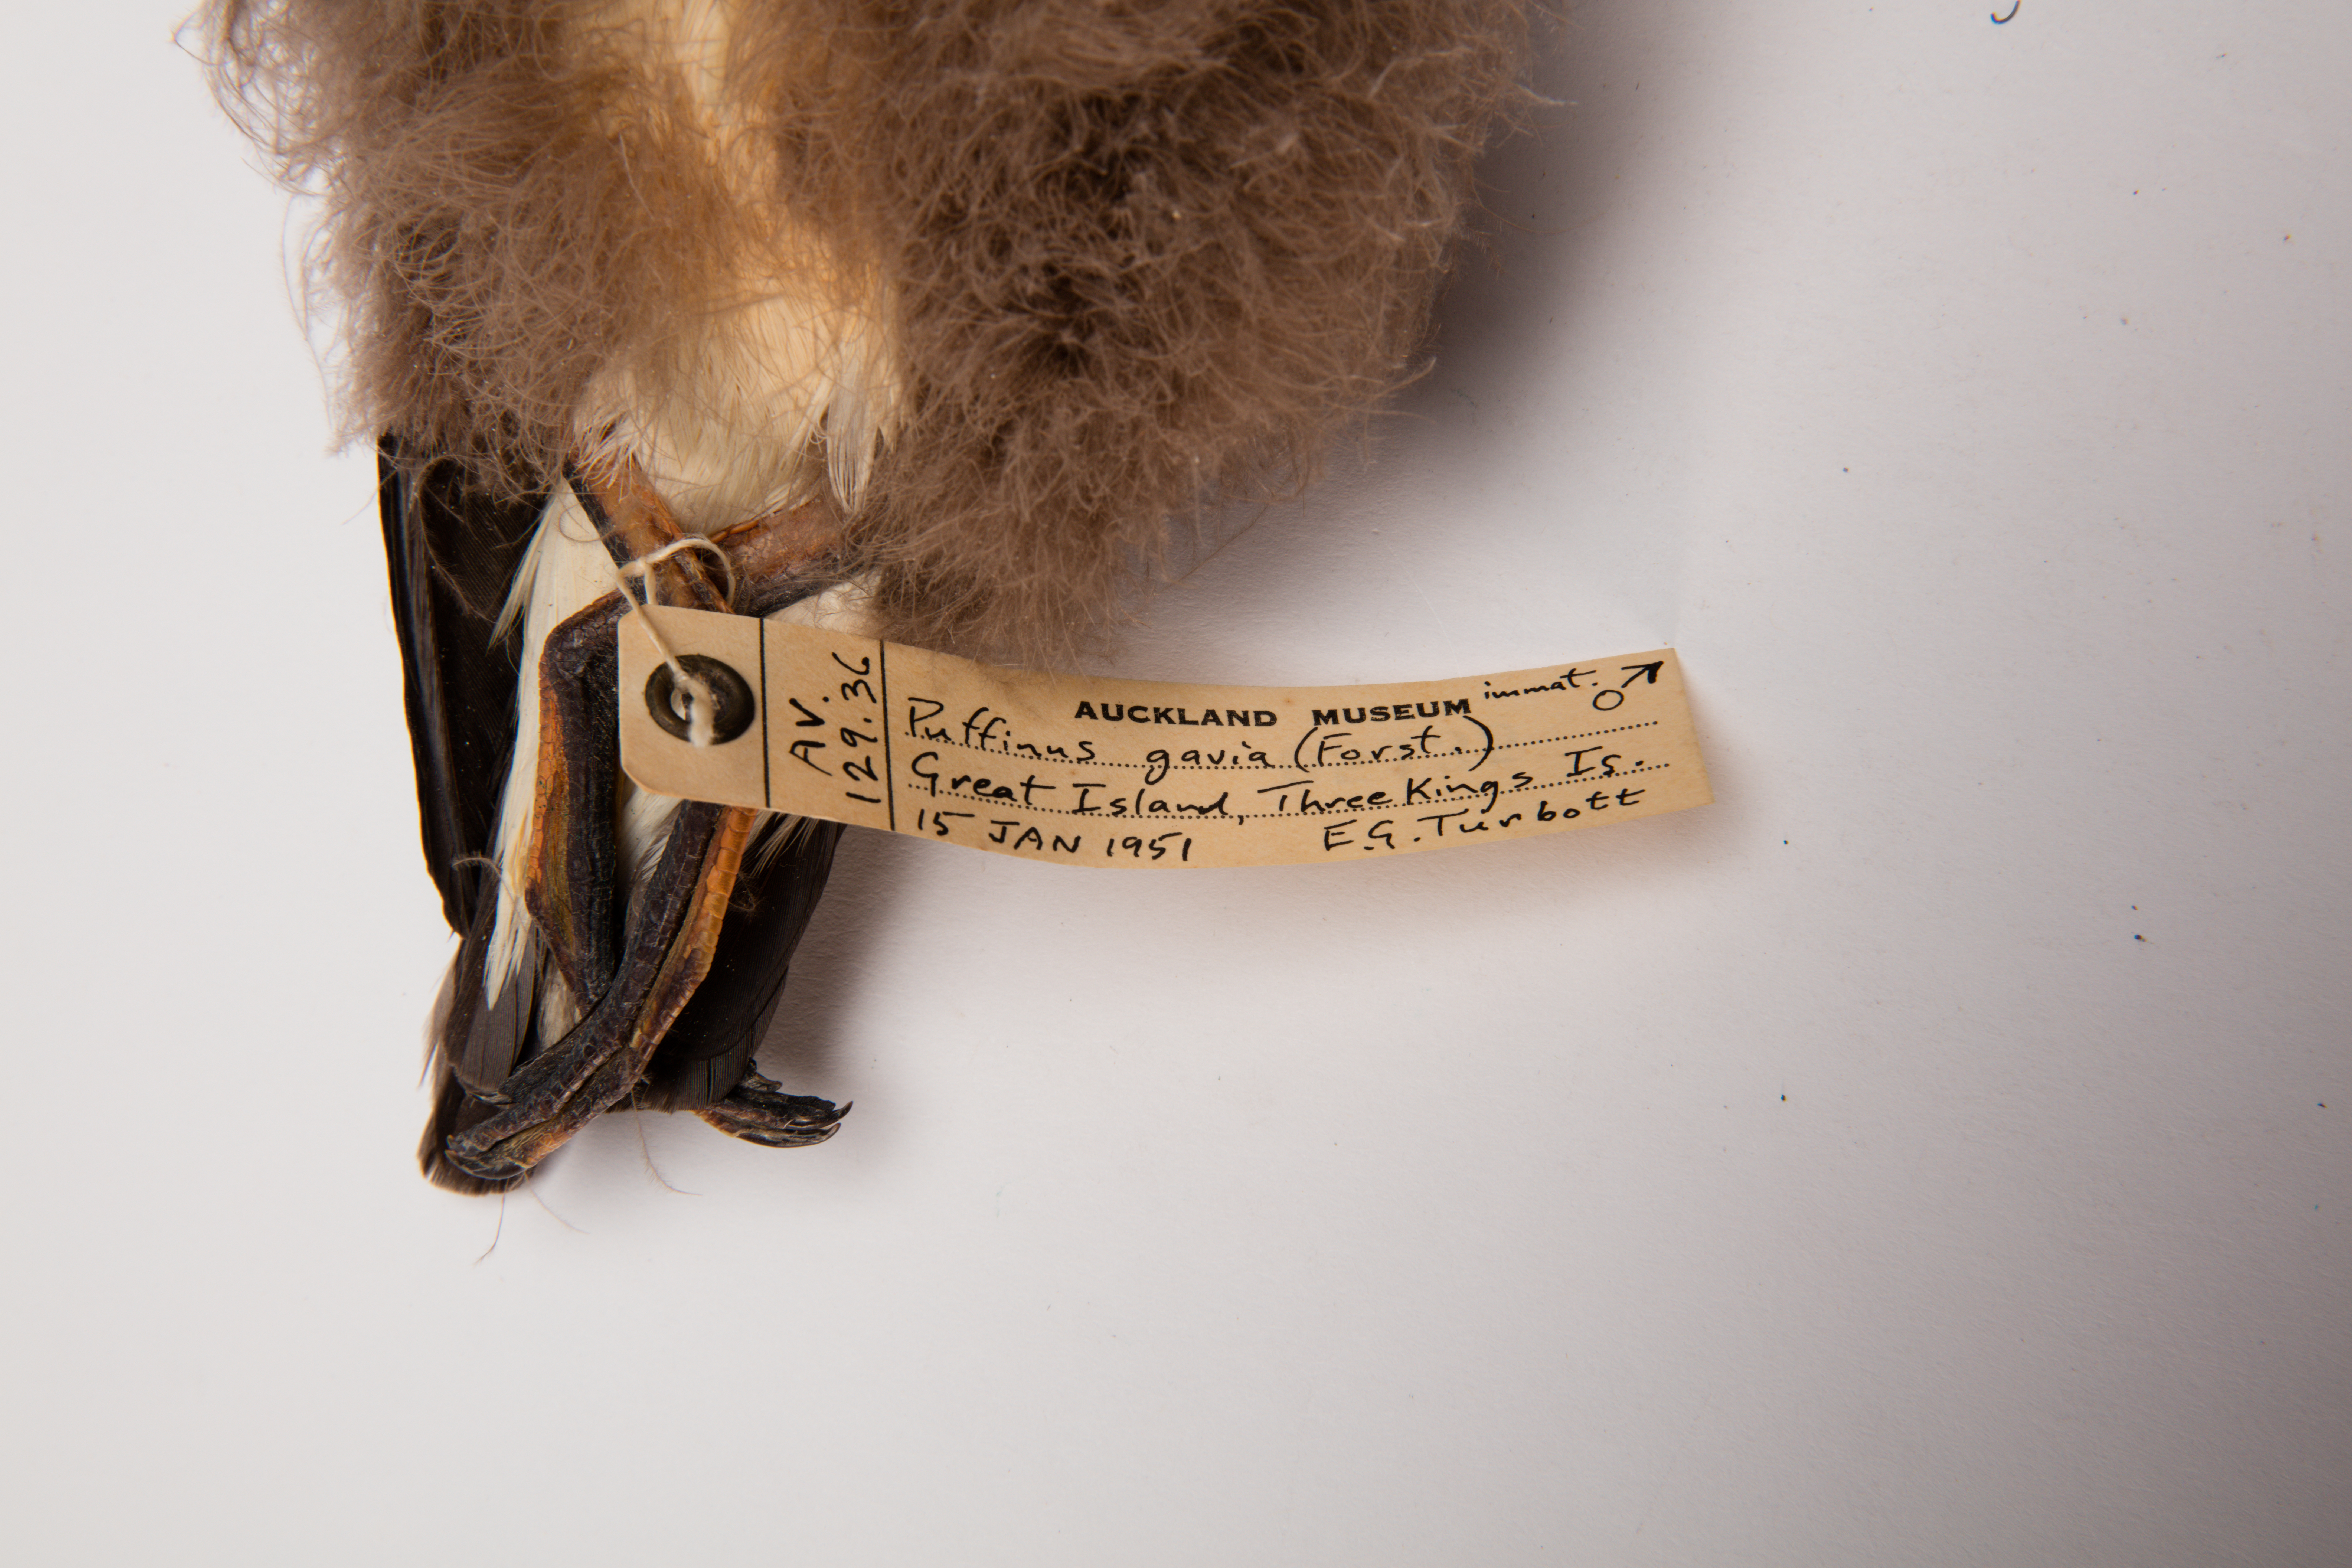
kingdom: Animalia
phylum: Chordata
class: Aves
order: Procellariiformes
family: Procellariidae
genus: Ardenna
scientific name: Ardenna
